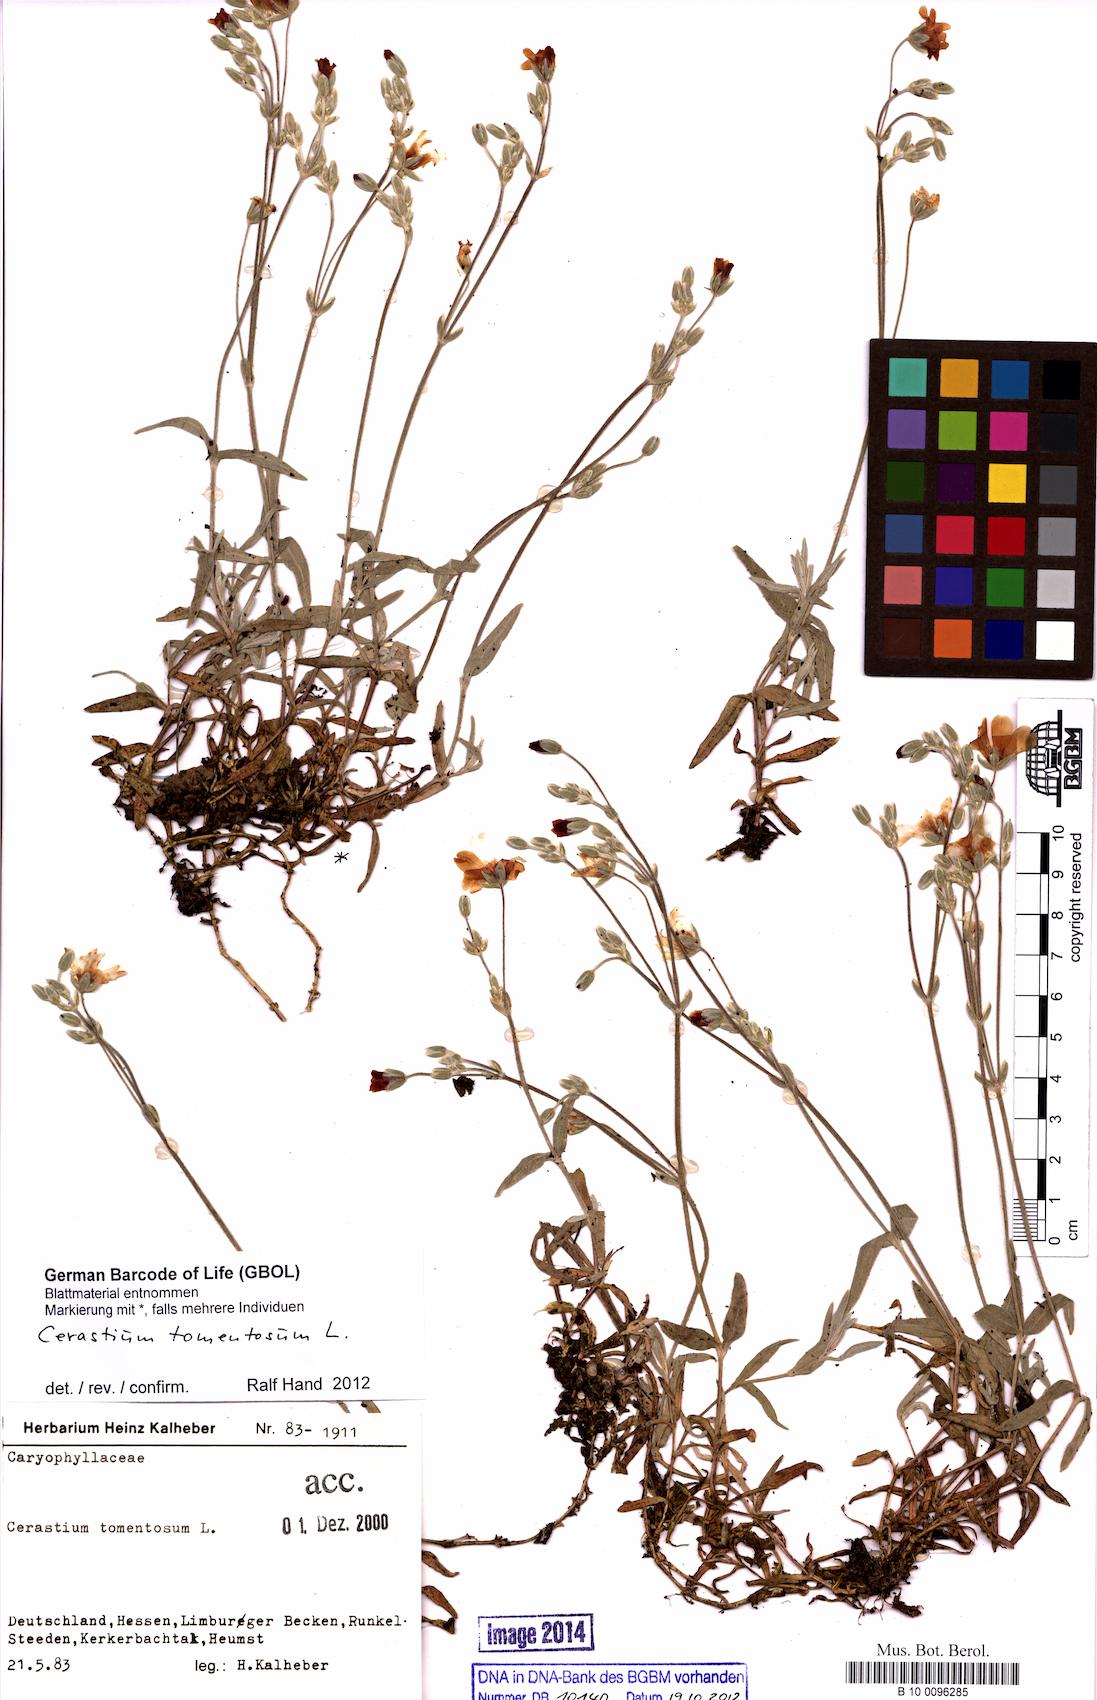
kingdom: Plantae
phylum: Tracheophyta
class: Magnoliopsida
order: Caryophyllales
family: Caryophyllaceae
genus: Cerastium
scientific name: Cerastium tomentosum
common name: Snow-in-summer
